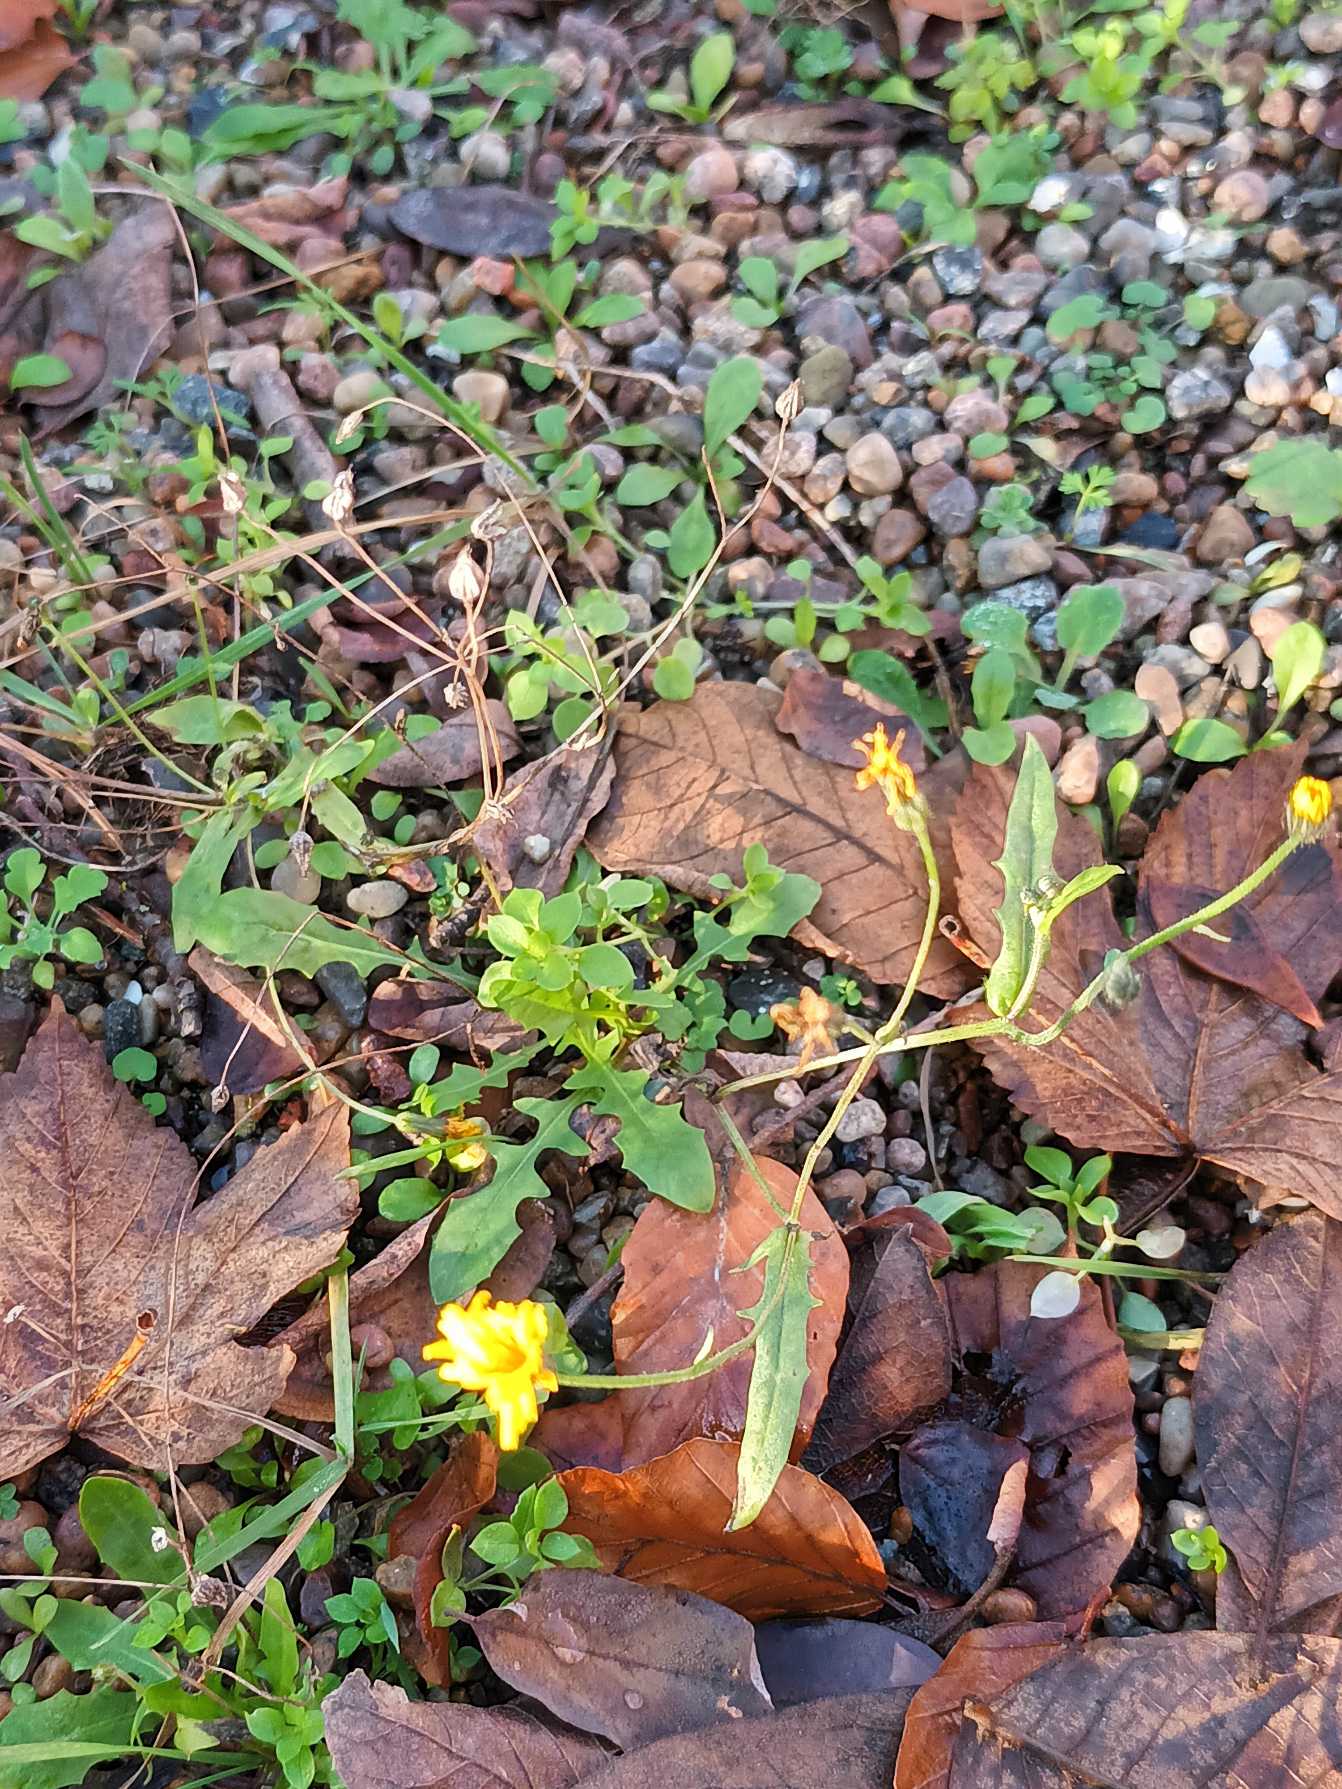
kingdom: Plantae
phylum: Tracheophyta
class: Magnoliopsida
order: Asterales
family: Asteraceae
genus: Crepis
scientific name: Crepis capillaris
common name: Grøn høgeskæg
